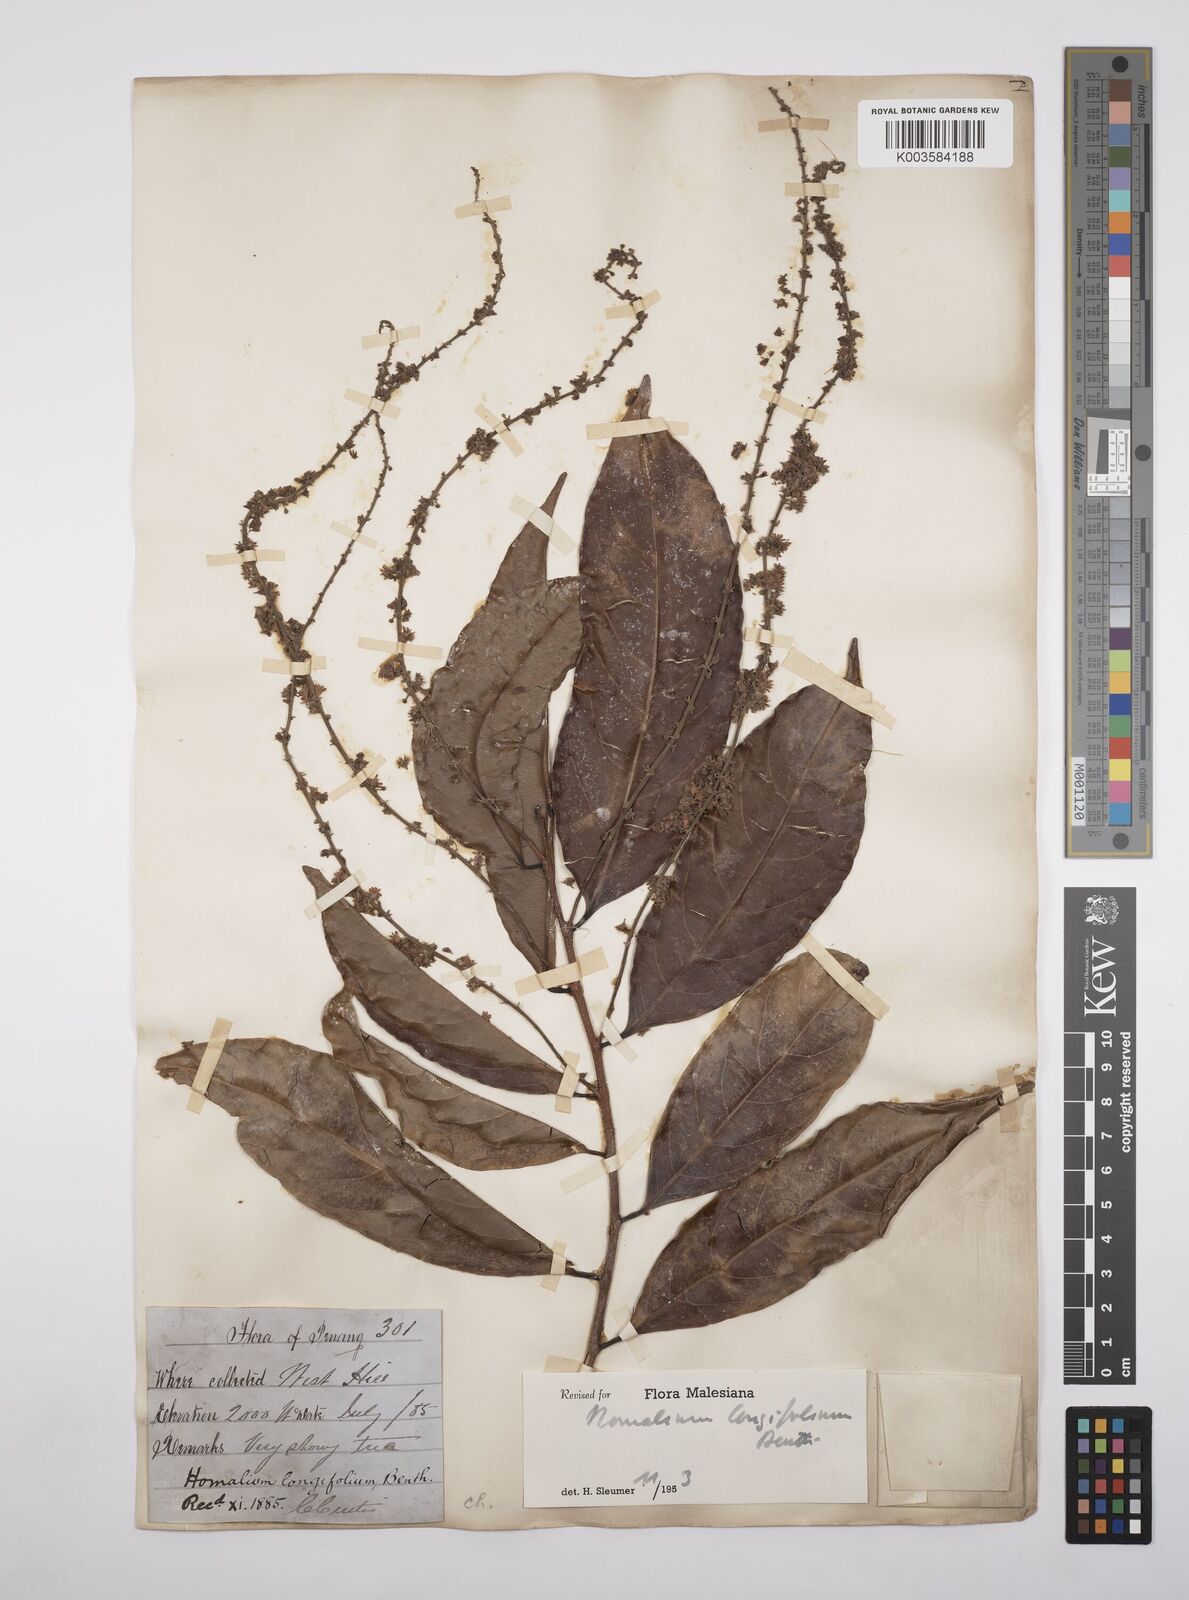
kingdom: Plantae
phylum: Tracheophyta
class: Magnoliopsida
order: Malpighiales
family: Salicaceae
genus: Homalium
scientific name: Homalium longifolium
